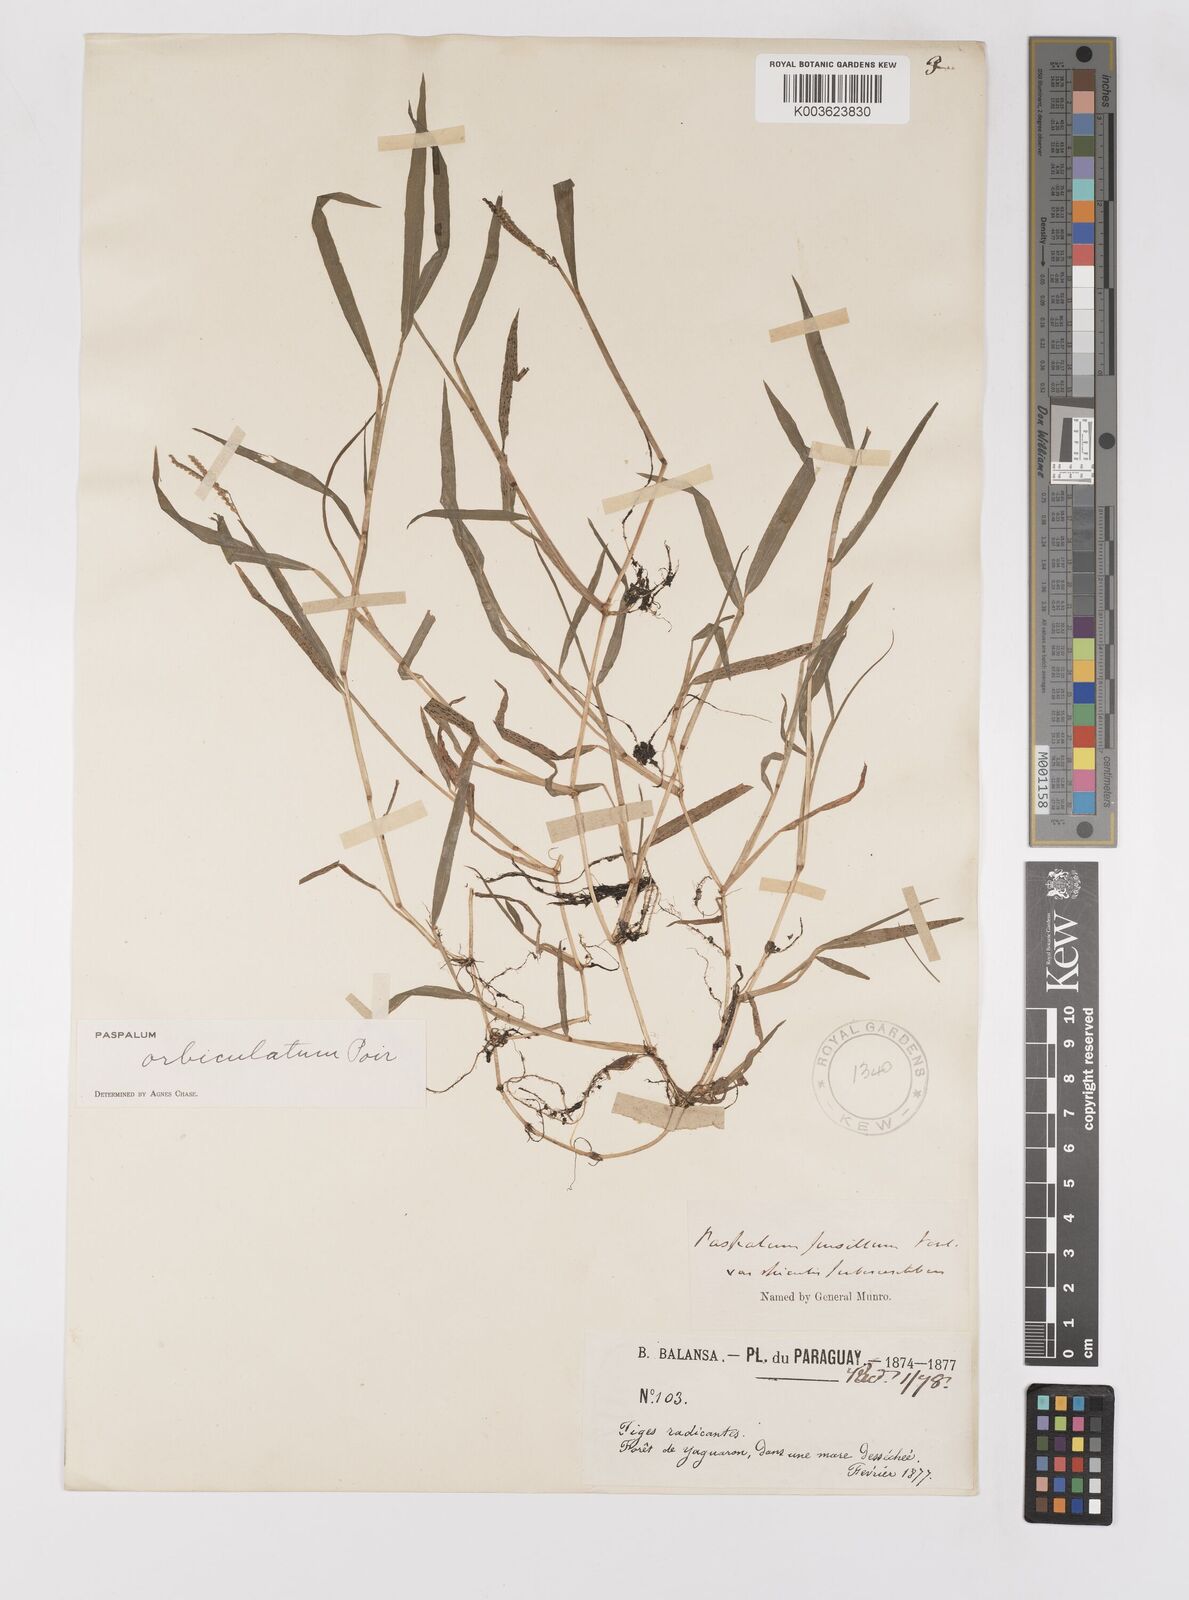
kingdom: Plantae
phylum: Tracheophyta
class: Liliopsida
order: Poales
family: Poaceae
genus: Paspalum
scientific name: Paspalum orbiculatum
